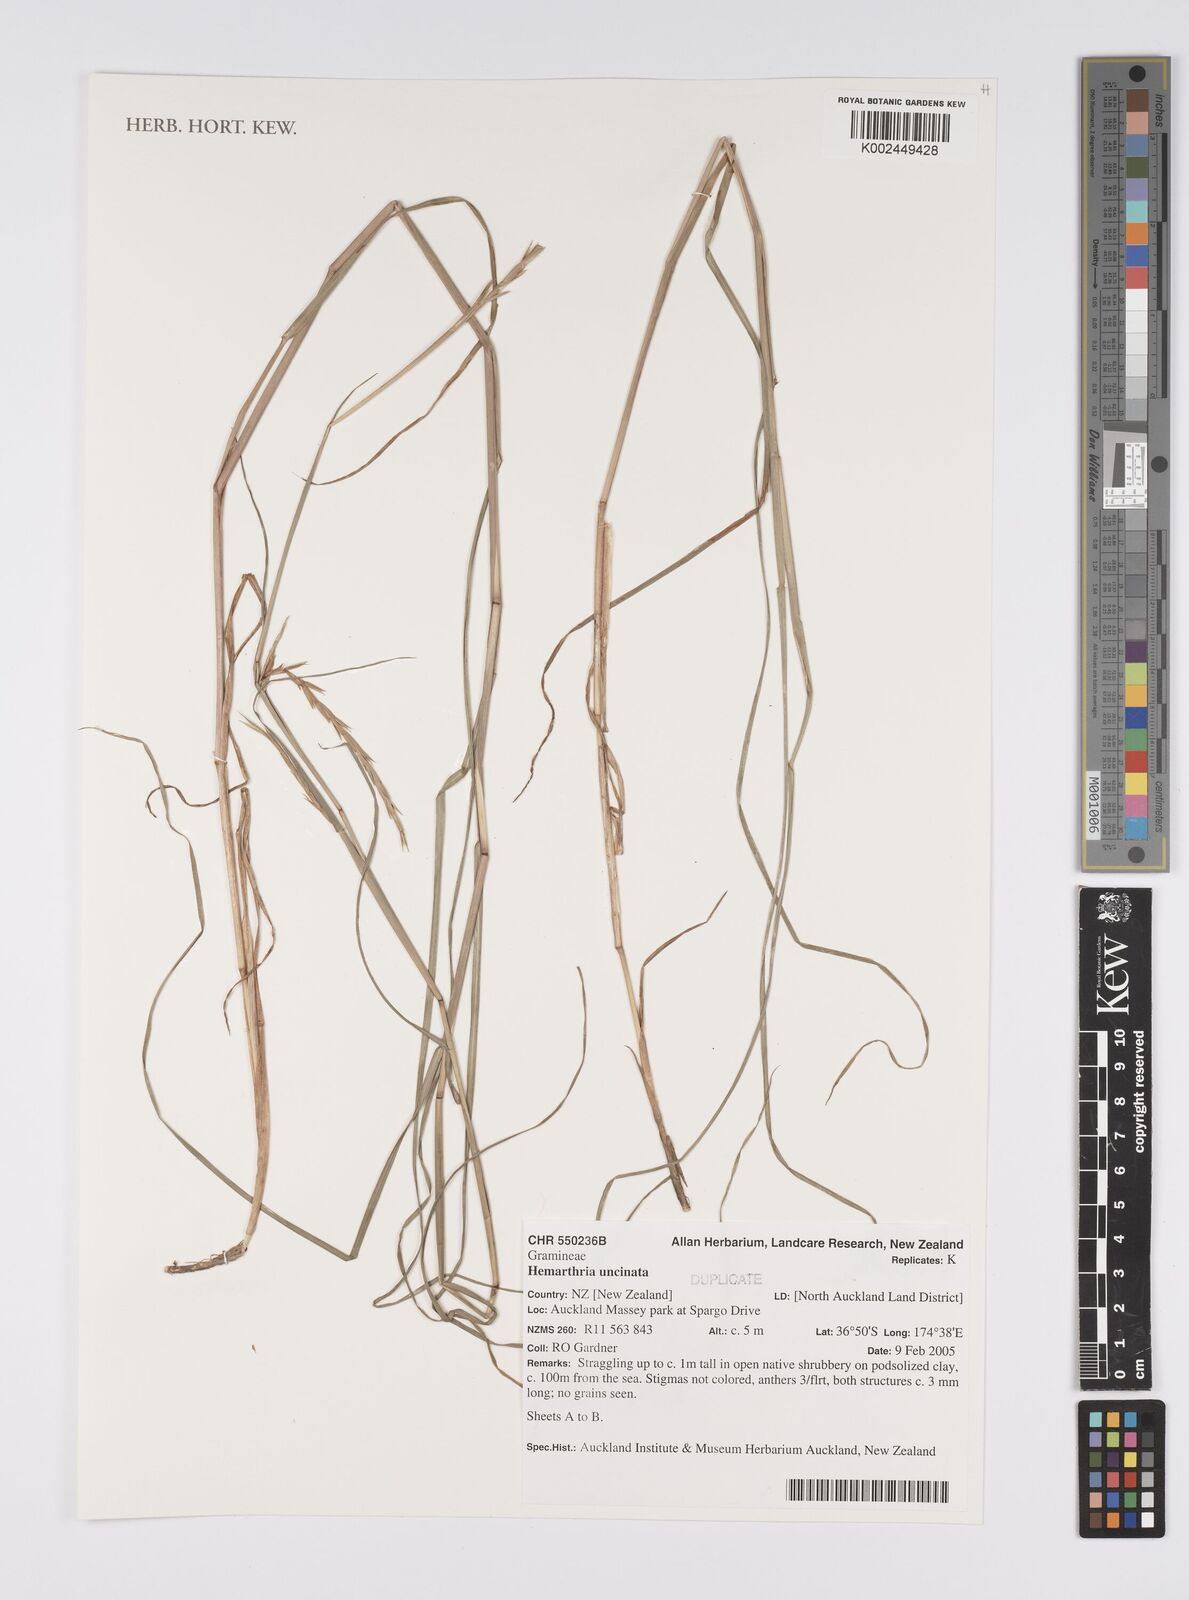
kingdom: Plantae
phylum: Tracheophyta
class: Liliopsida
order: Poales
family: Poaceae
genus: Hemarthria
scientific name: Hemarthria uncinata
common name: Matgrass
